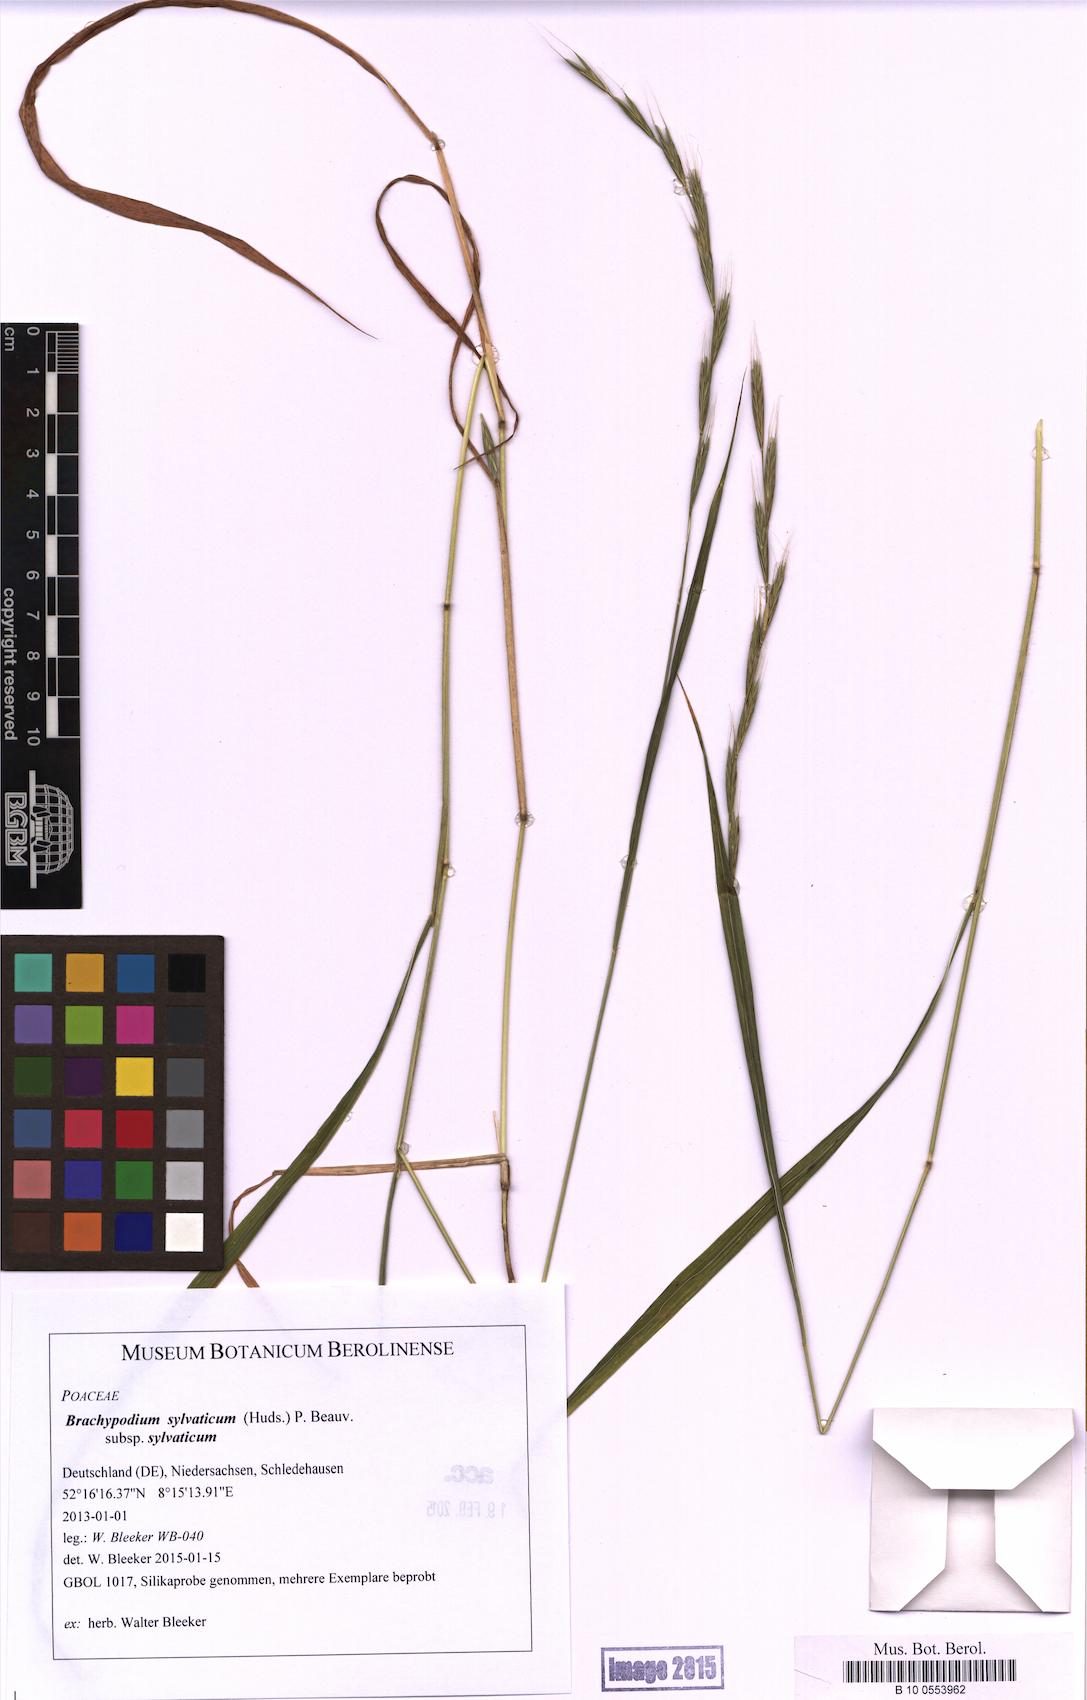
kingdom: Plantae
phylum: Tracheophyta
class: Liliopsida
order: Poales
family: Poaceae
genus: Brachypodium
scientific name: Brachypodium sylvaticum
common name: False-brome
